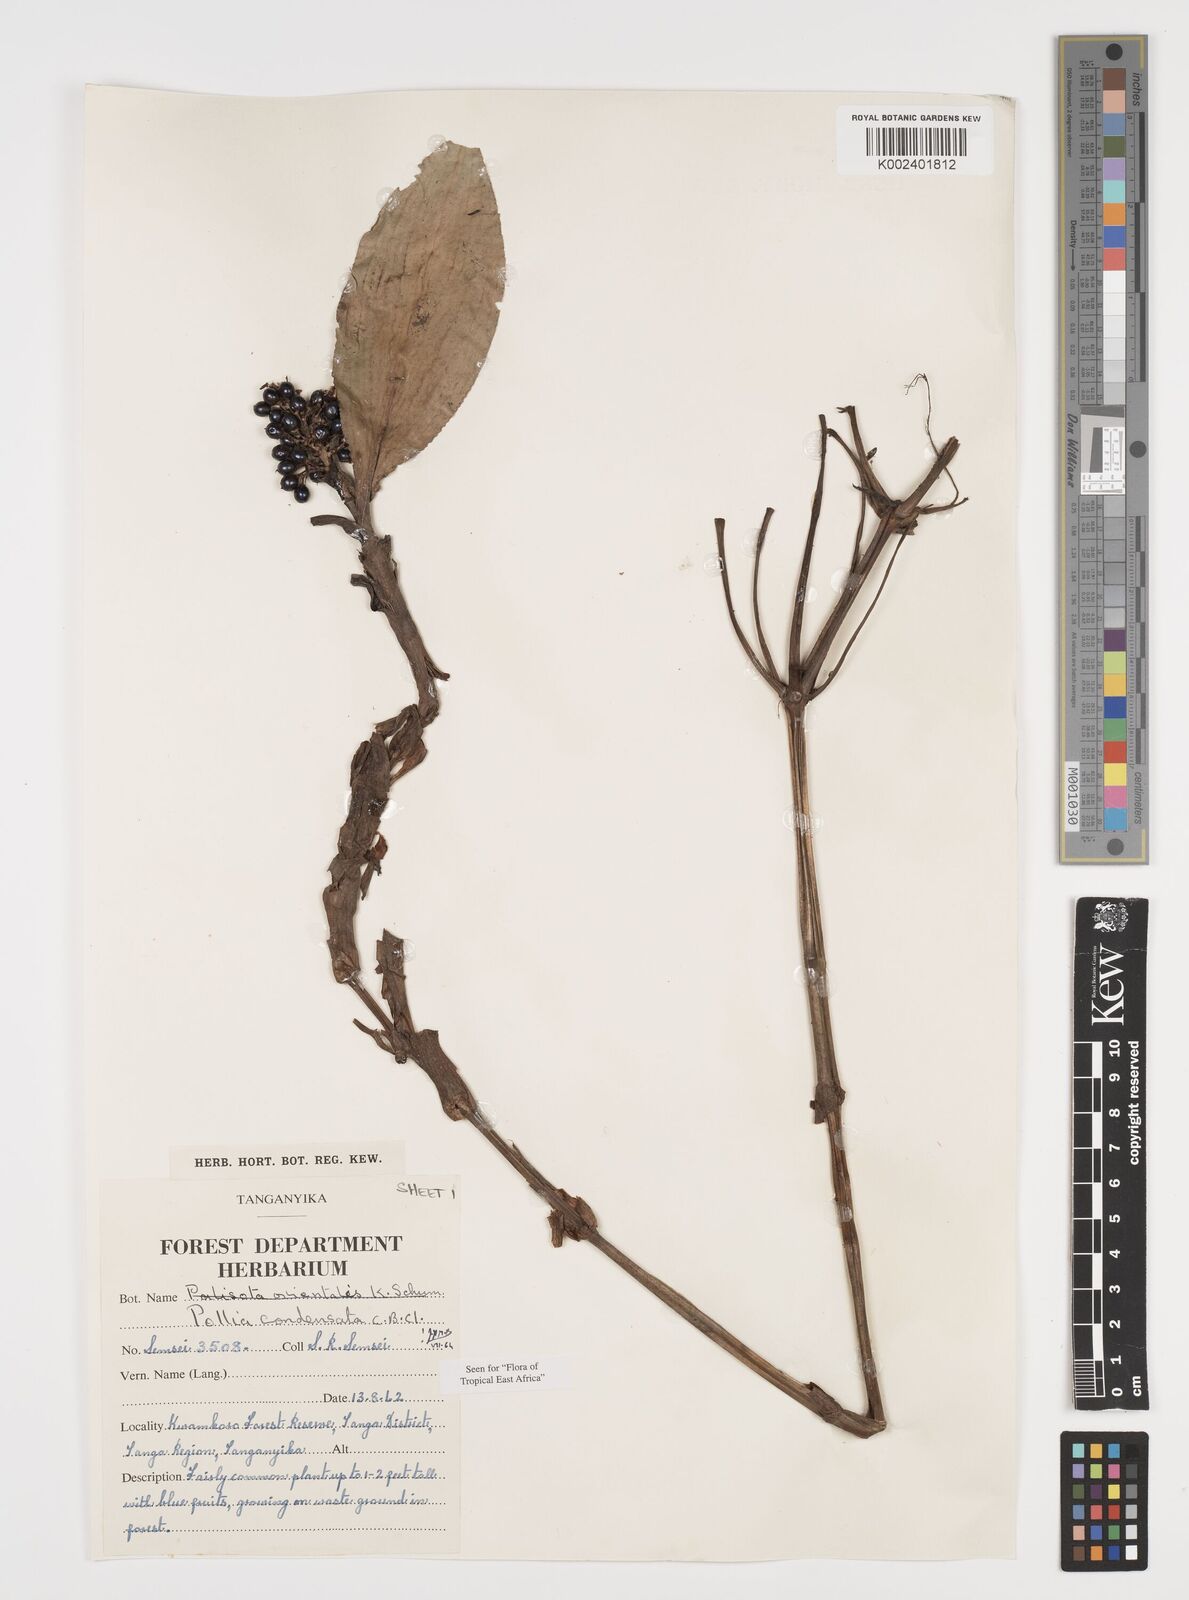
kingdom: Plantae
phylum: Tracheophyta
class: Liliopsida
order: Commelinales
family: Commelinaceae
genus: Pollia
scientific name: Pollia condensata
